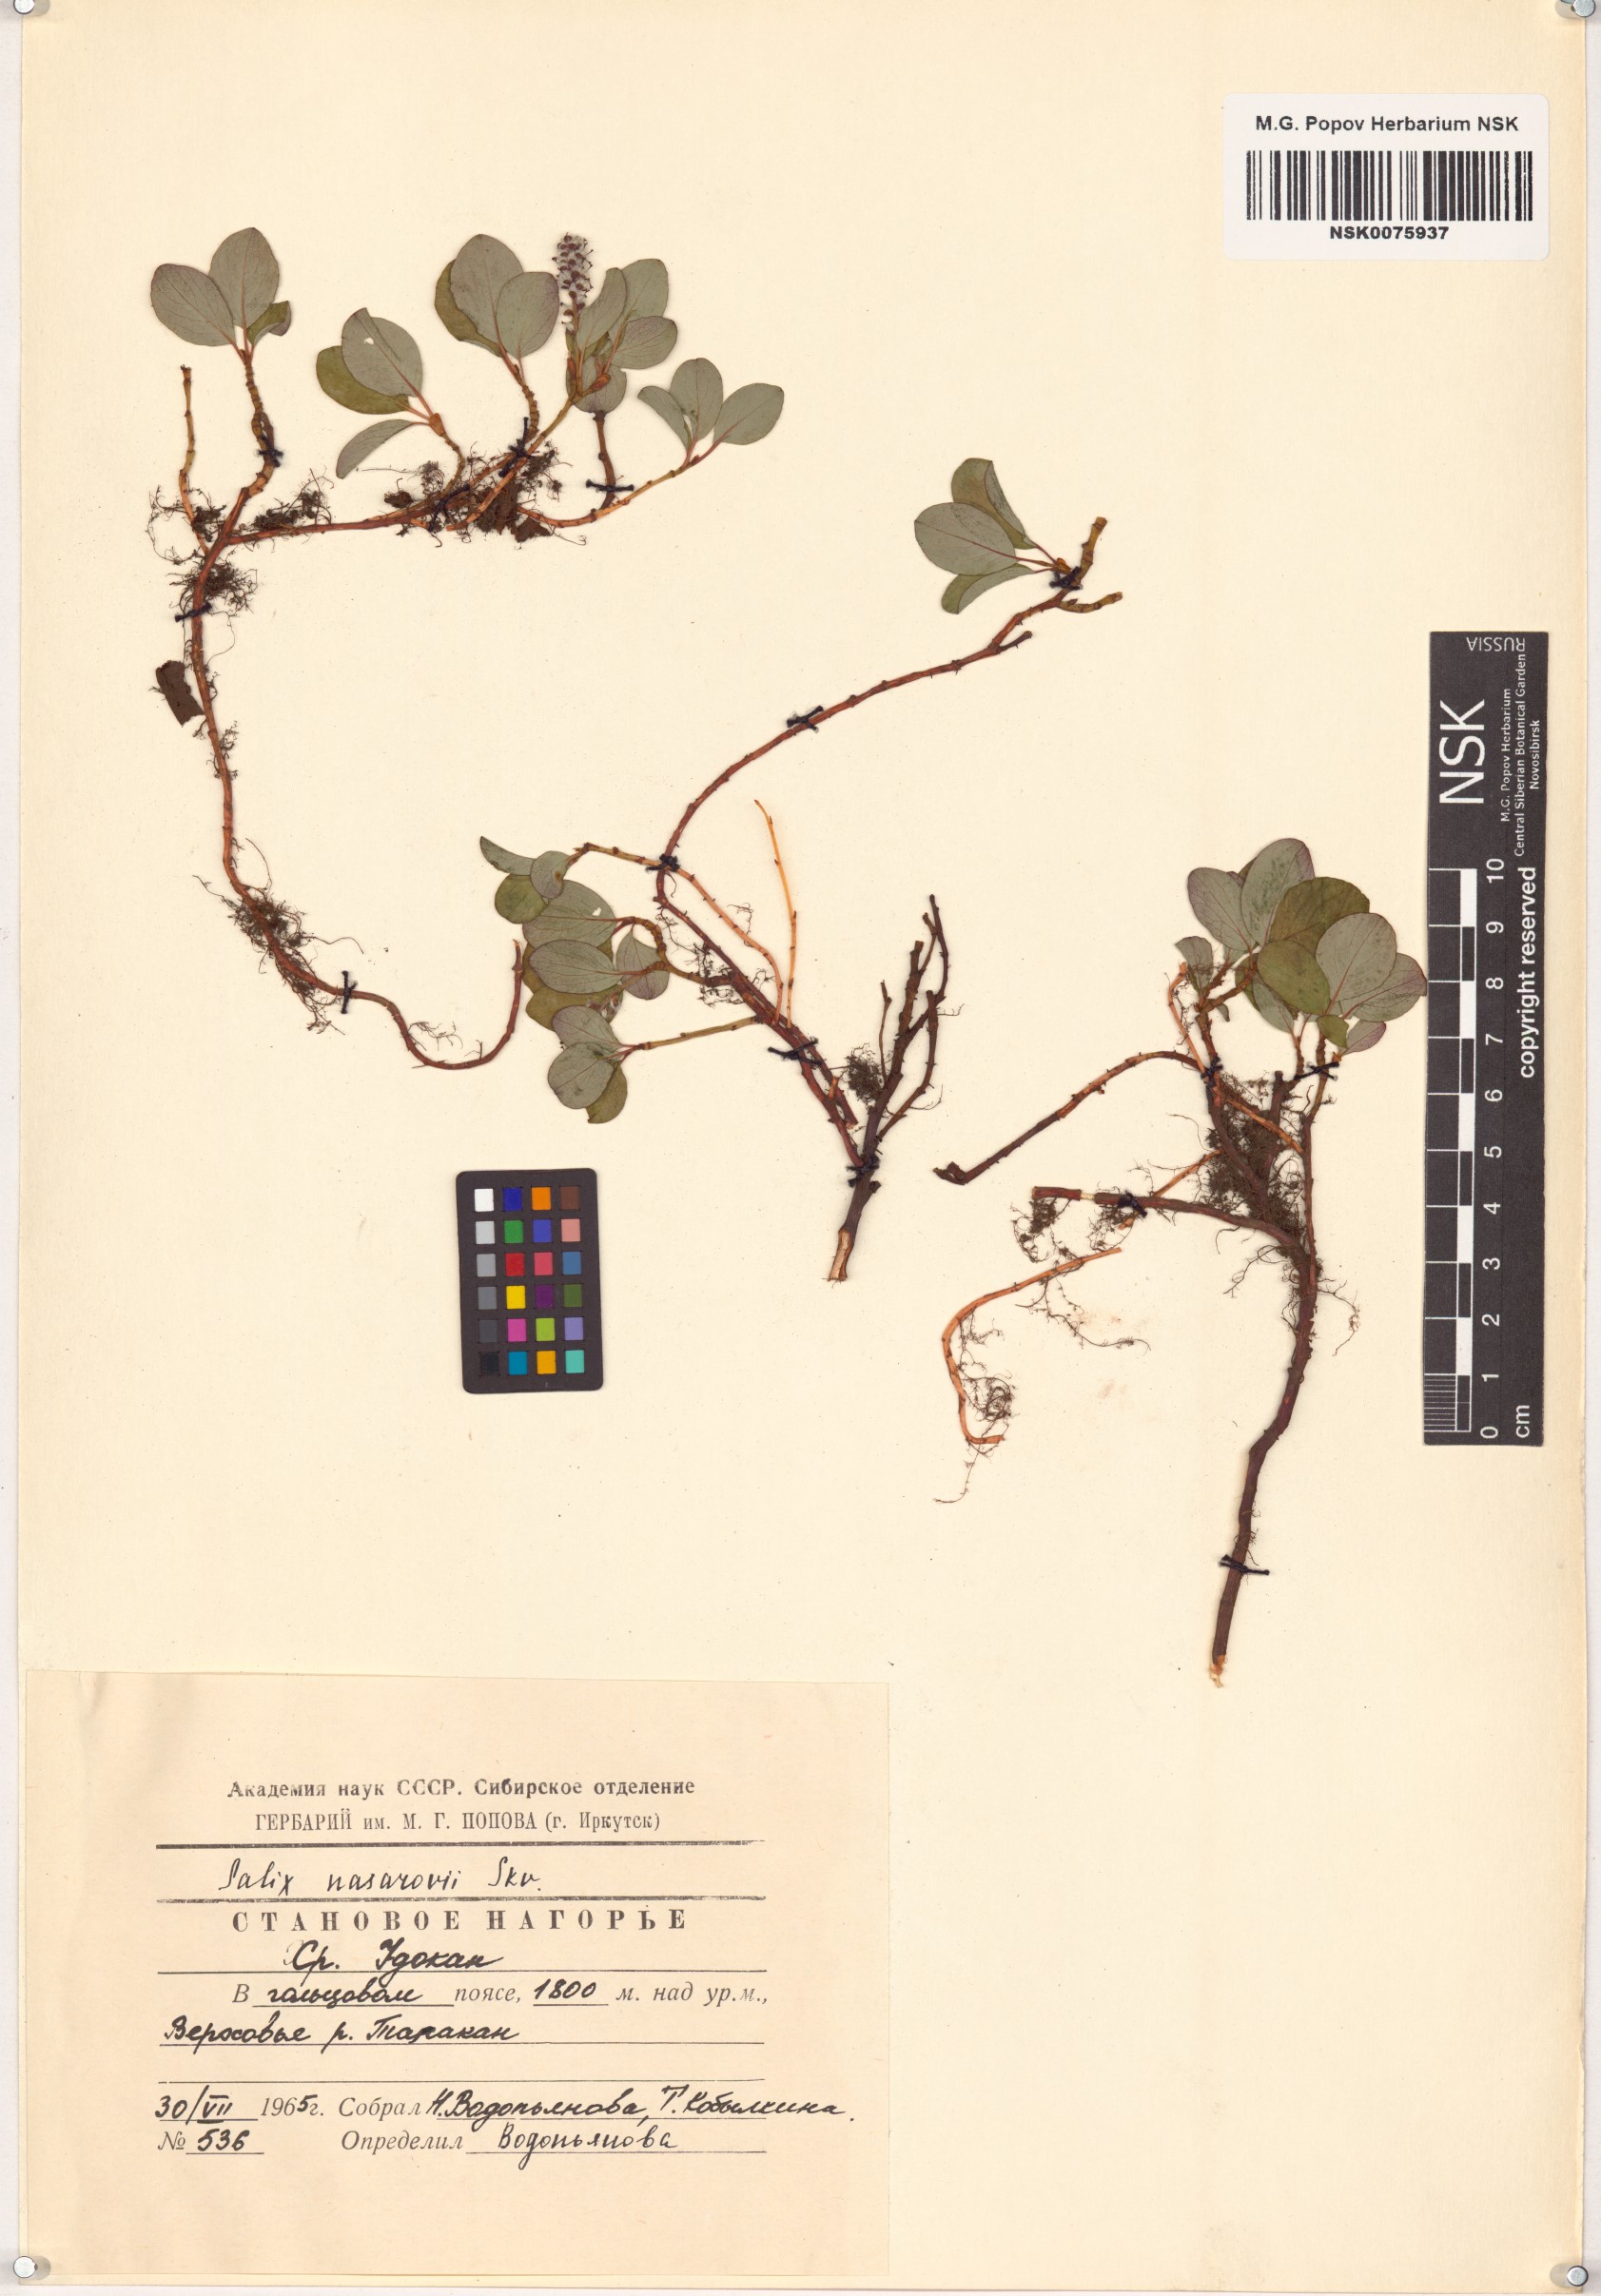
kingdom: Plantae
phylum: Tracheophyta
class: Magnoliopsida
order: Malpighiales
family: Salicaceae
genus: Salix
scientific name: Salix nasarovii
